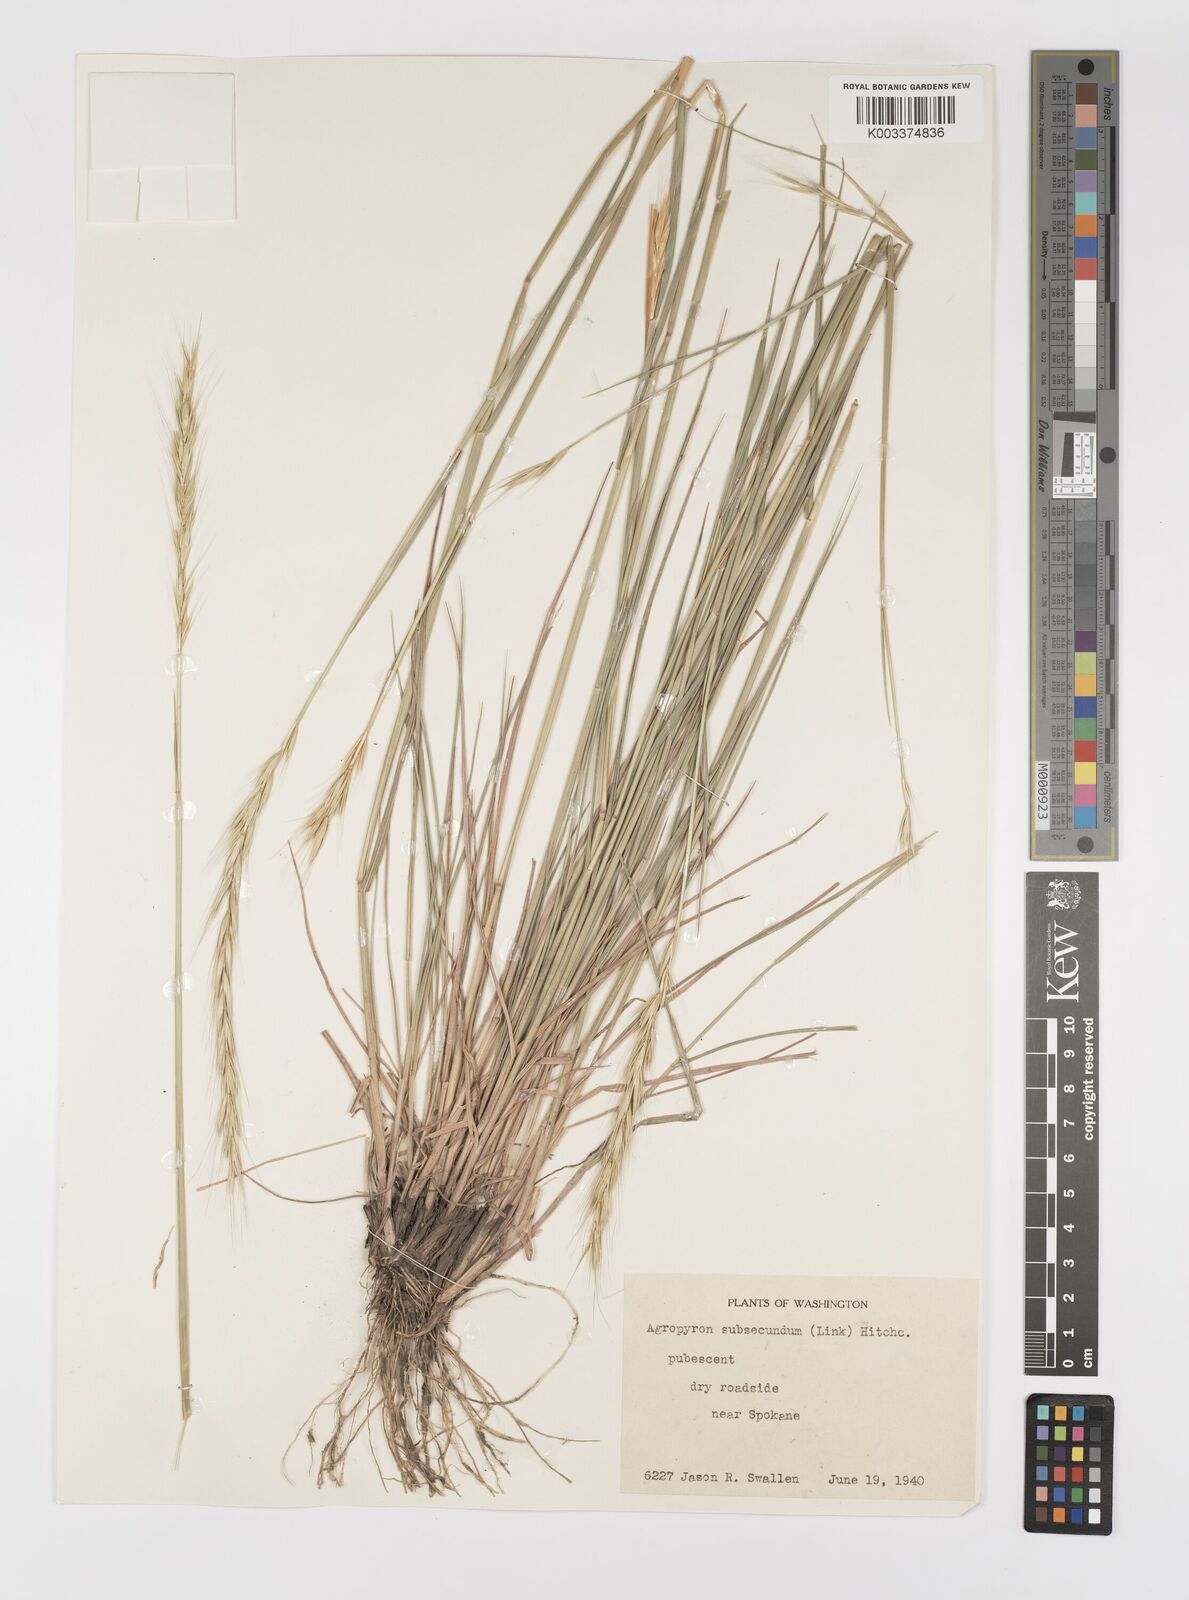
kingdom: Plantae
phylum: Tracheophyta
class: Liliopsida
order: Poales
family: Poaceae
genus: Elymus
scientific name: Elymus violaceus
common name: Arctic wheatgrass
